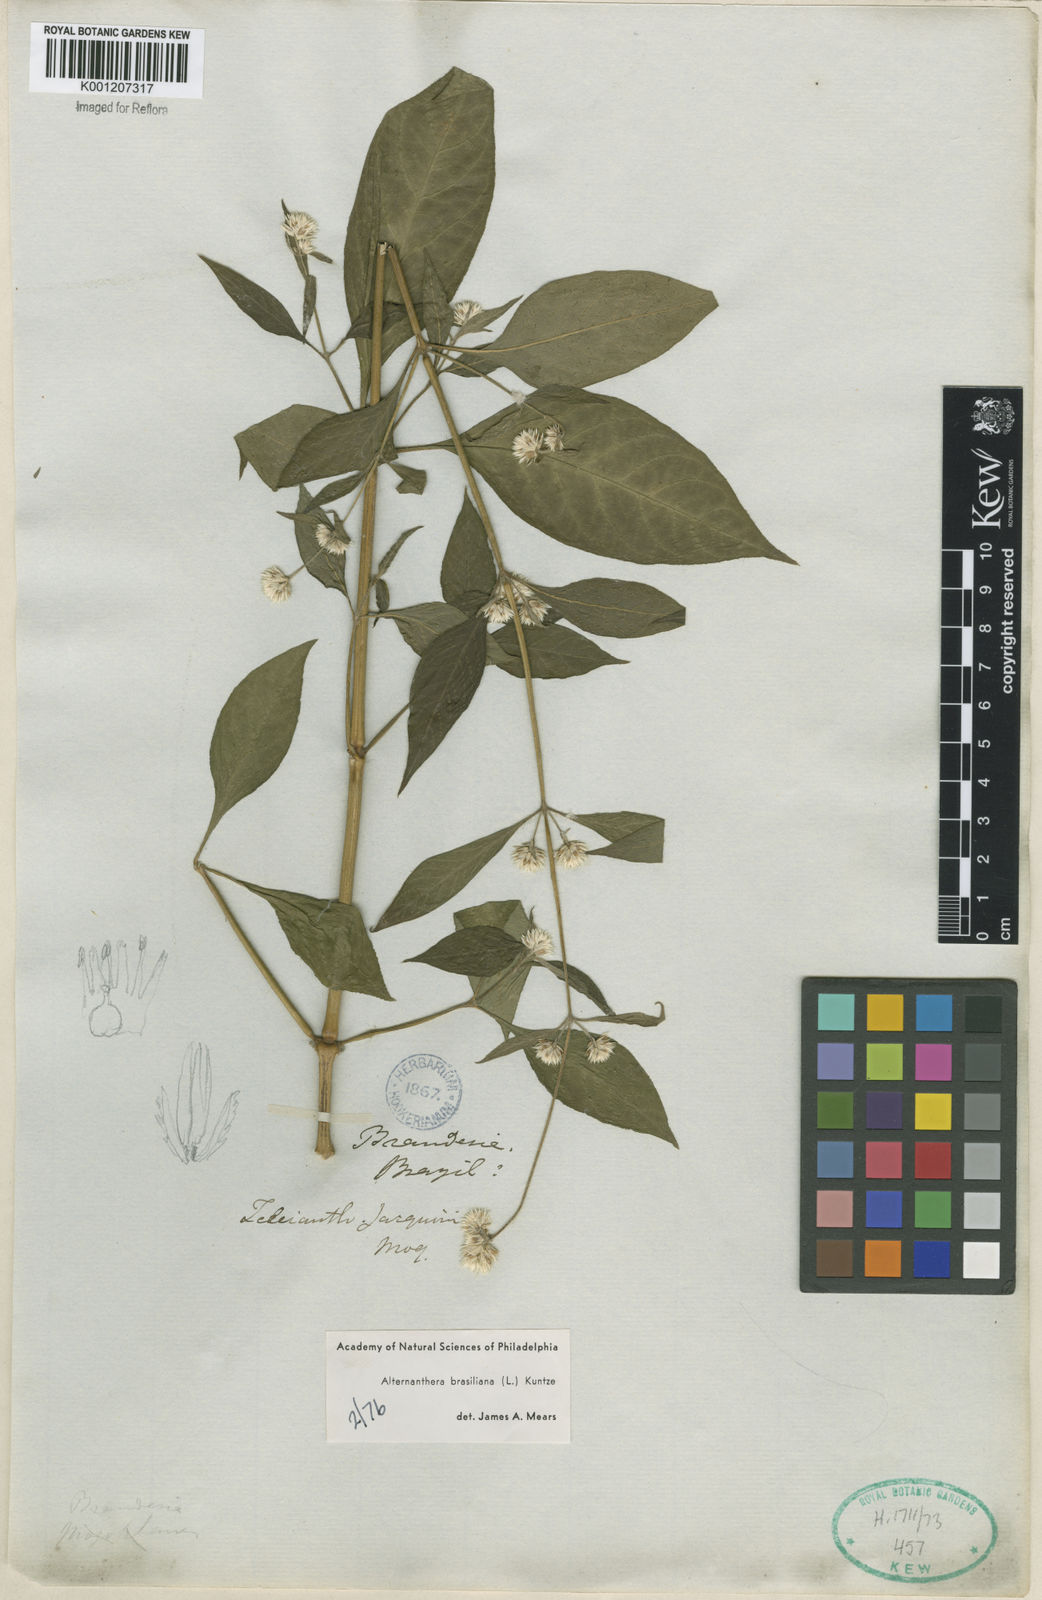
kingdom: Plantae
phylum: Tracheophyta
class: Magnoliopsida
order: Caryophyllales
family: Amaranthaceae
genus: Alternanthera
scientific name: Alternanthera brasiliana
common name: Brazilian joyweed
